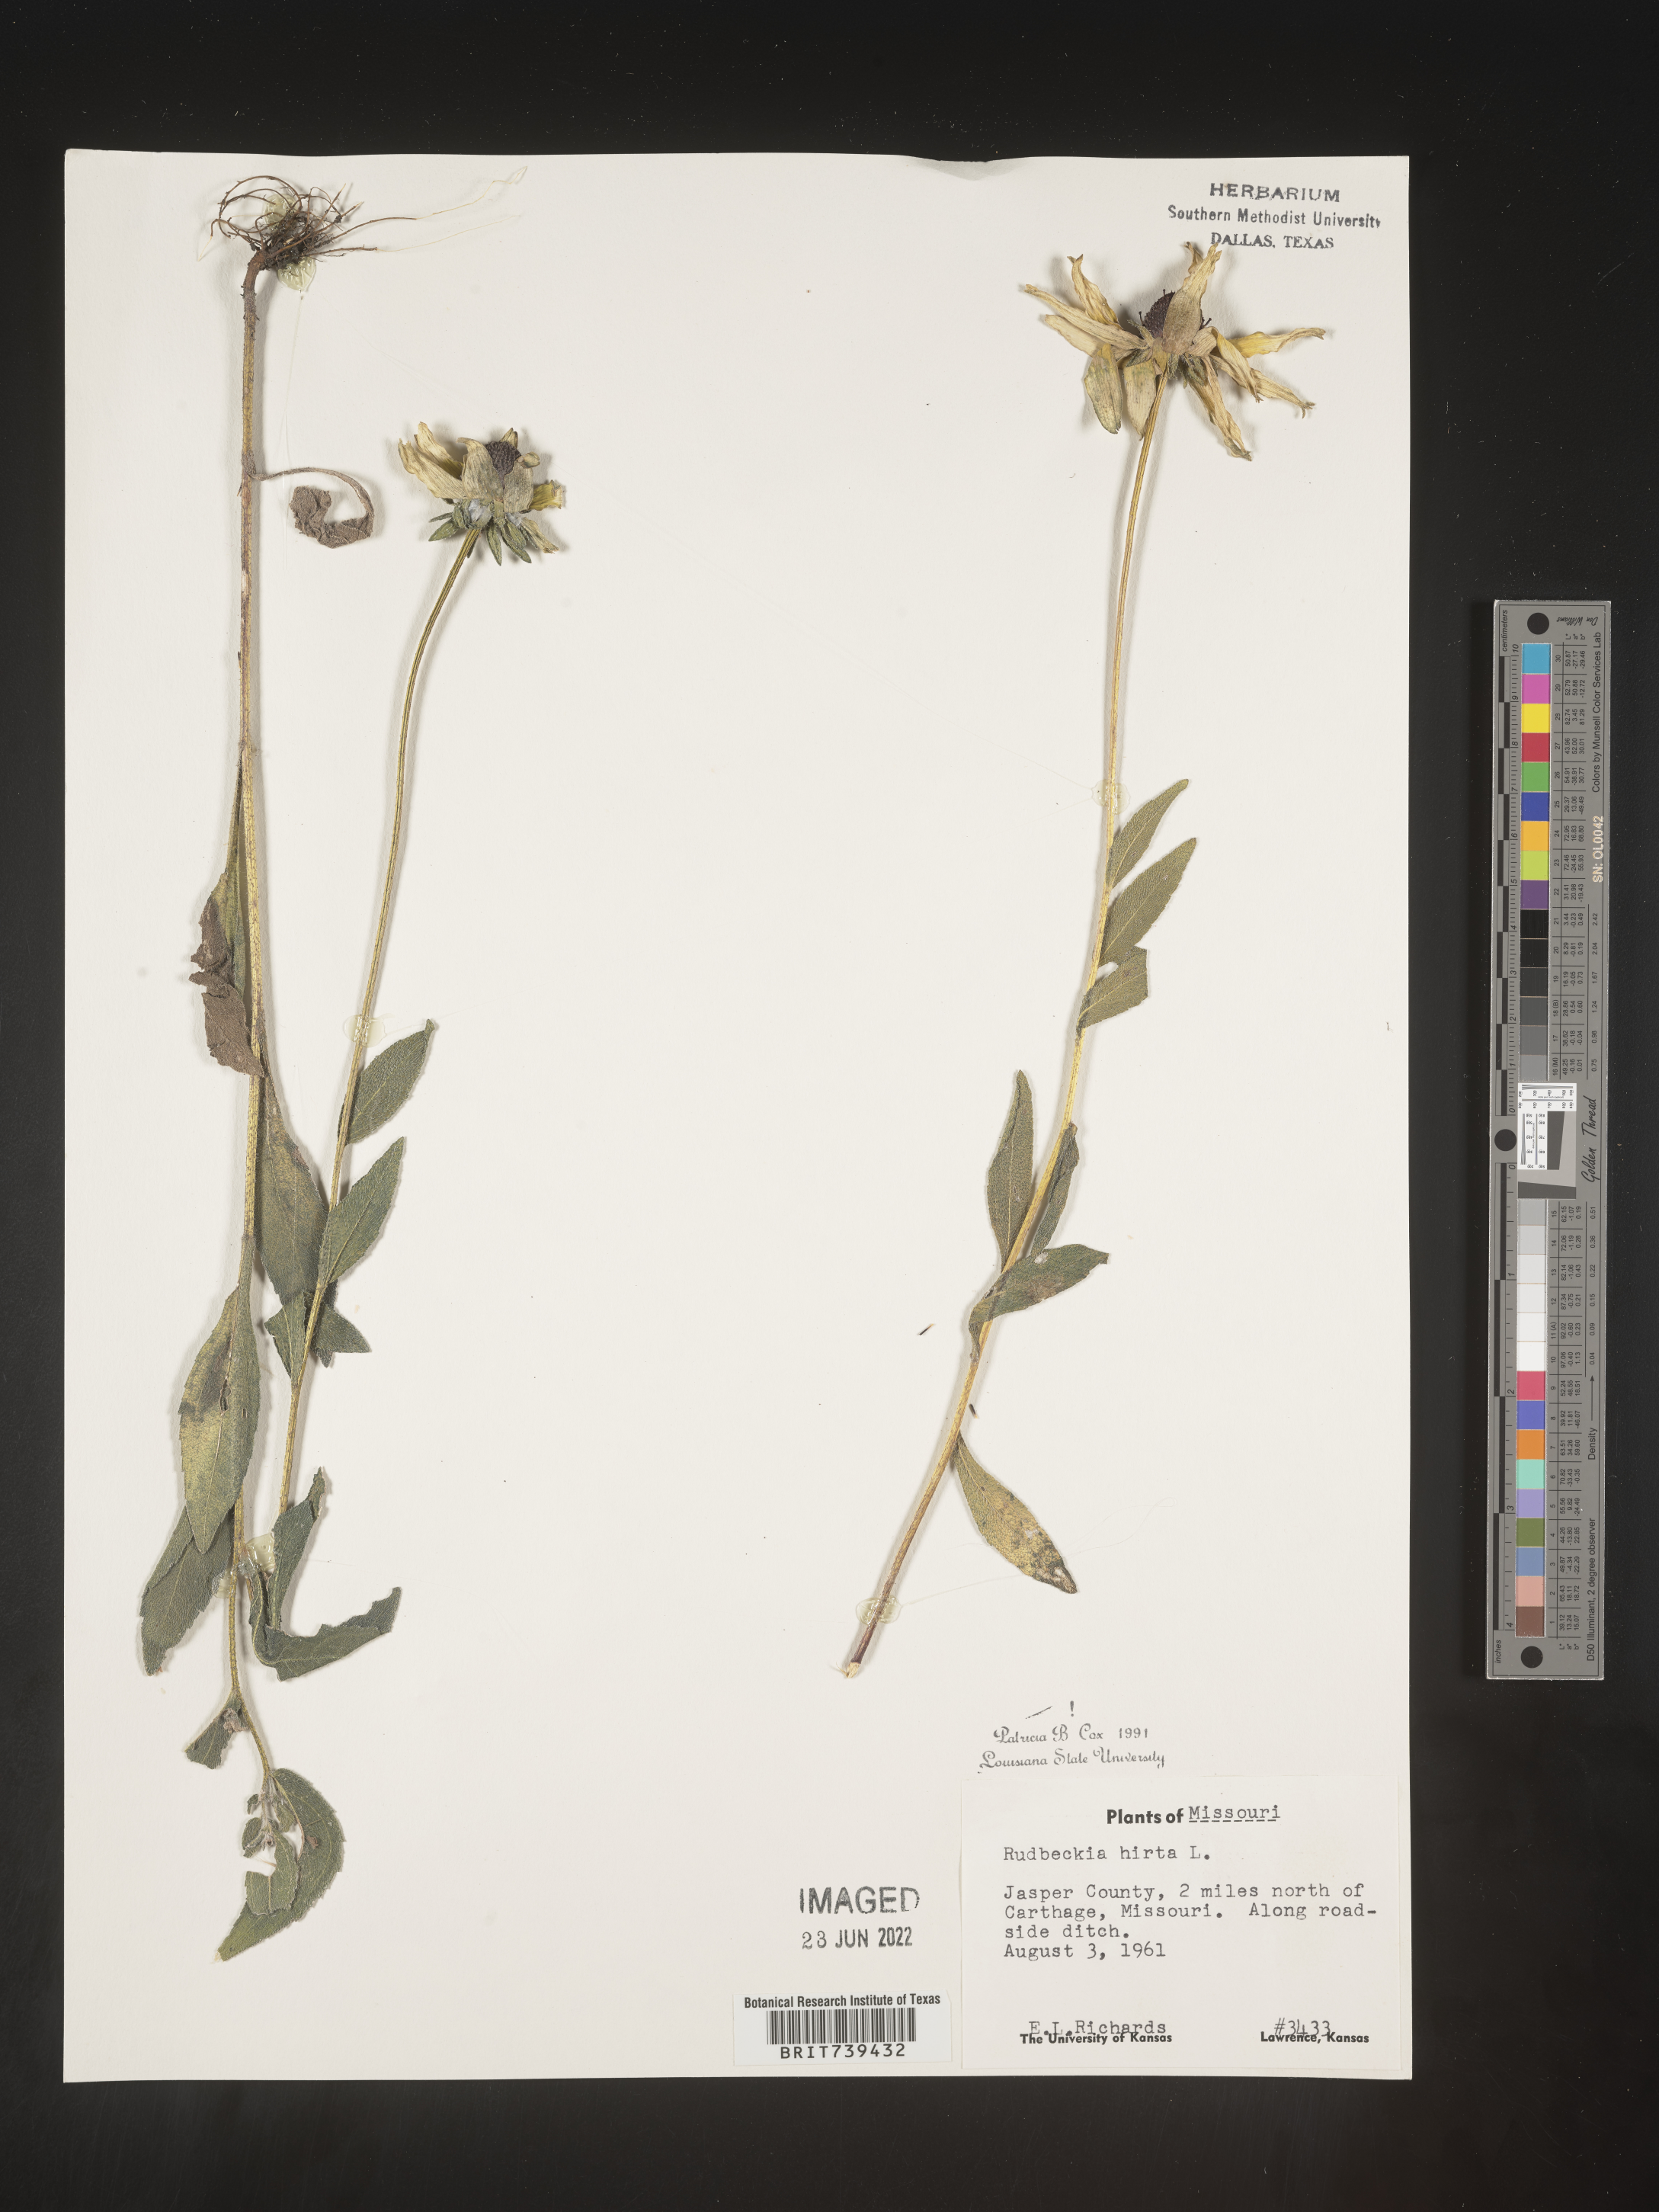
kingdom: Plantae
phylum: Tracheophyta
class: Magnoliopsida
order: Asterales
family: Asteraceae
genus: Rudbeckia
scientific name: Rudbeckia hirta
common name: Black-eyed-susan
